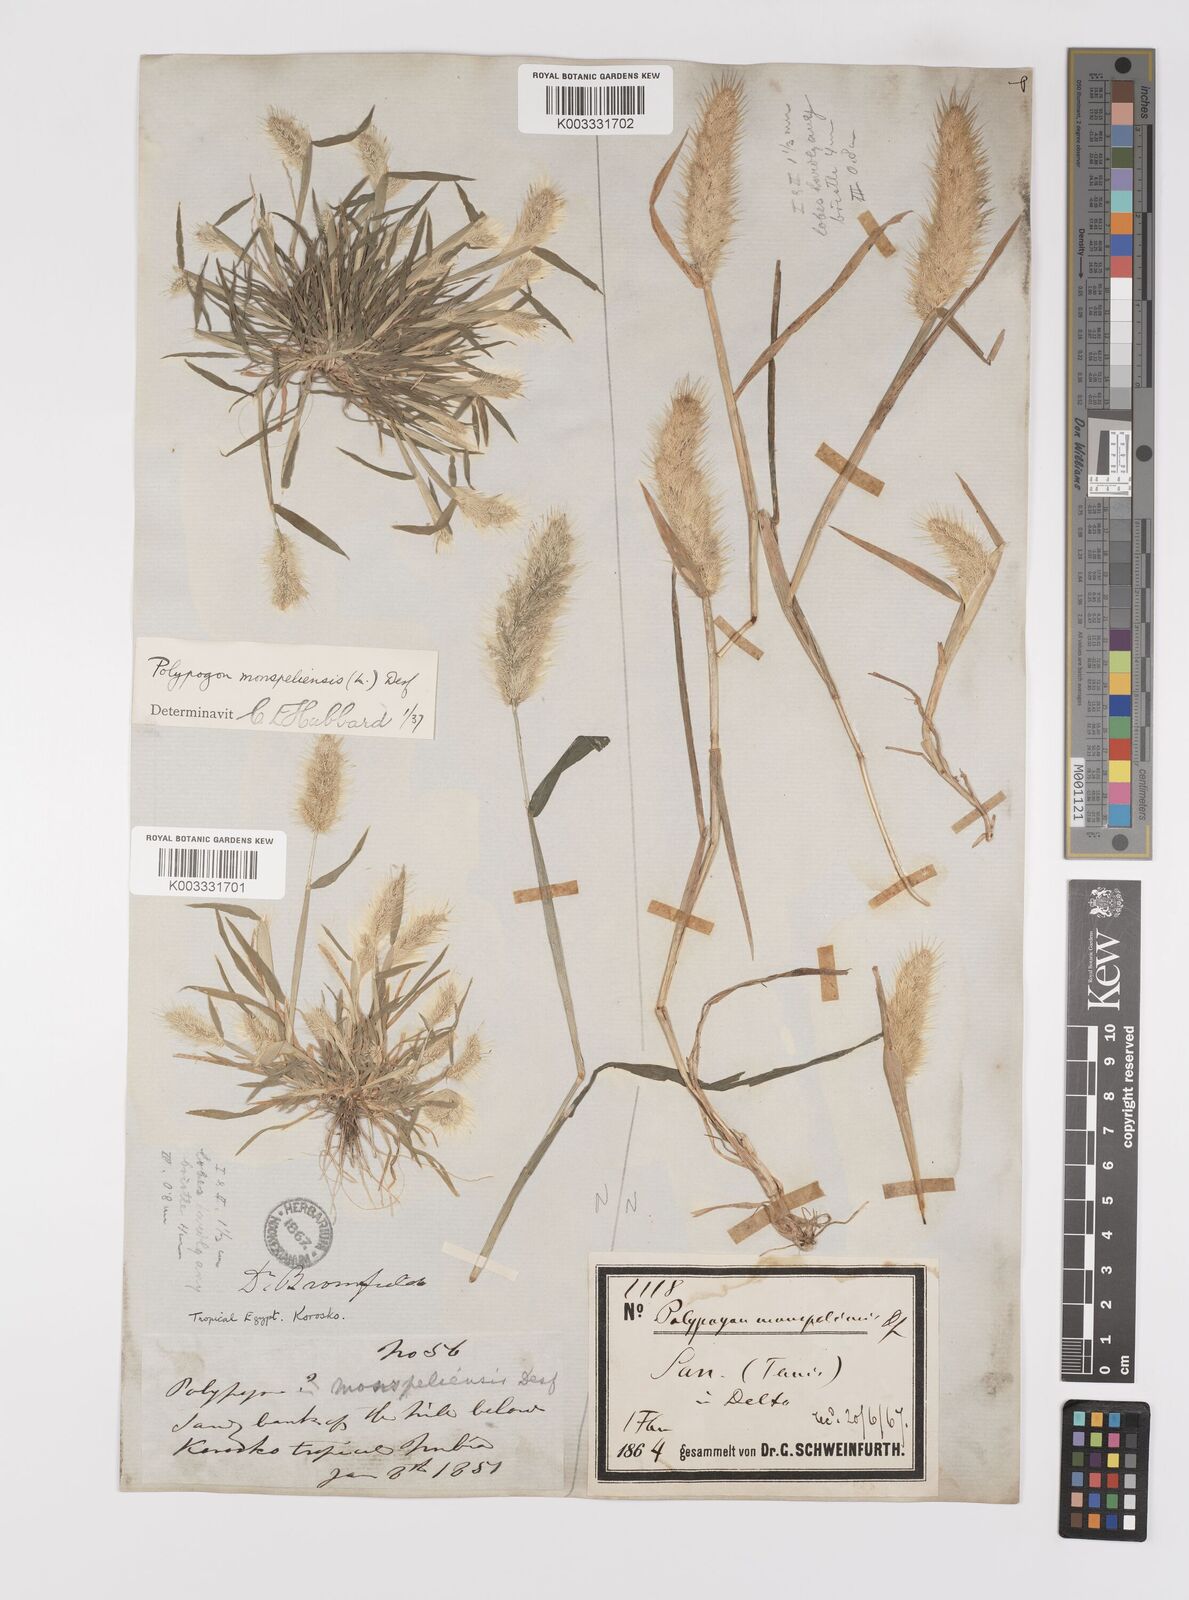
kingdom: Plantae
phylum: Tracheophyta
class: Liliopsida
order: Poales
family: Poaceae
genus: Polypogon
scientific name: Polypogon monspeliensis
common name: Annual rabbitsfoot grass
